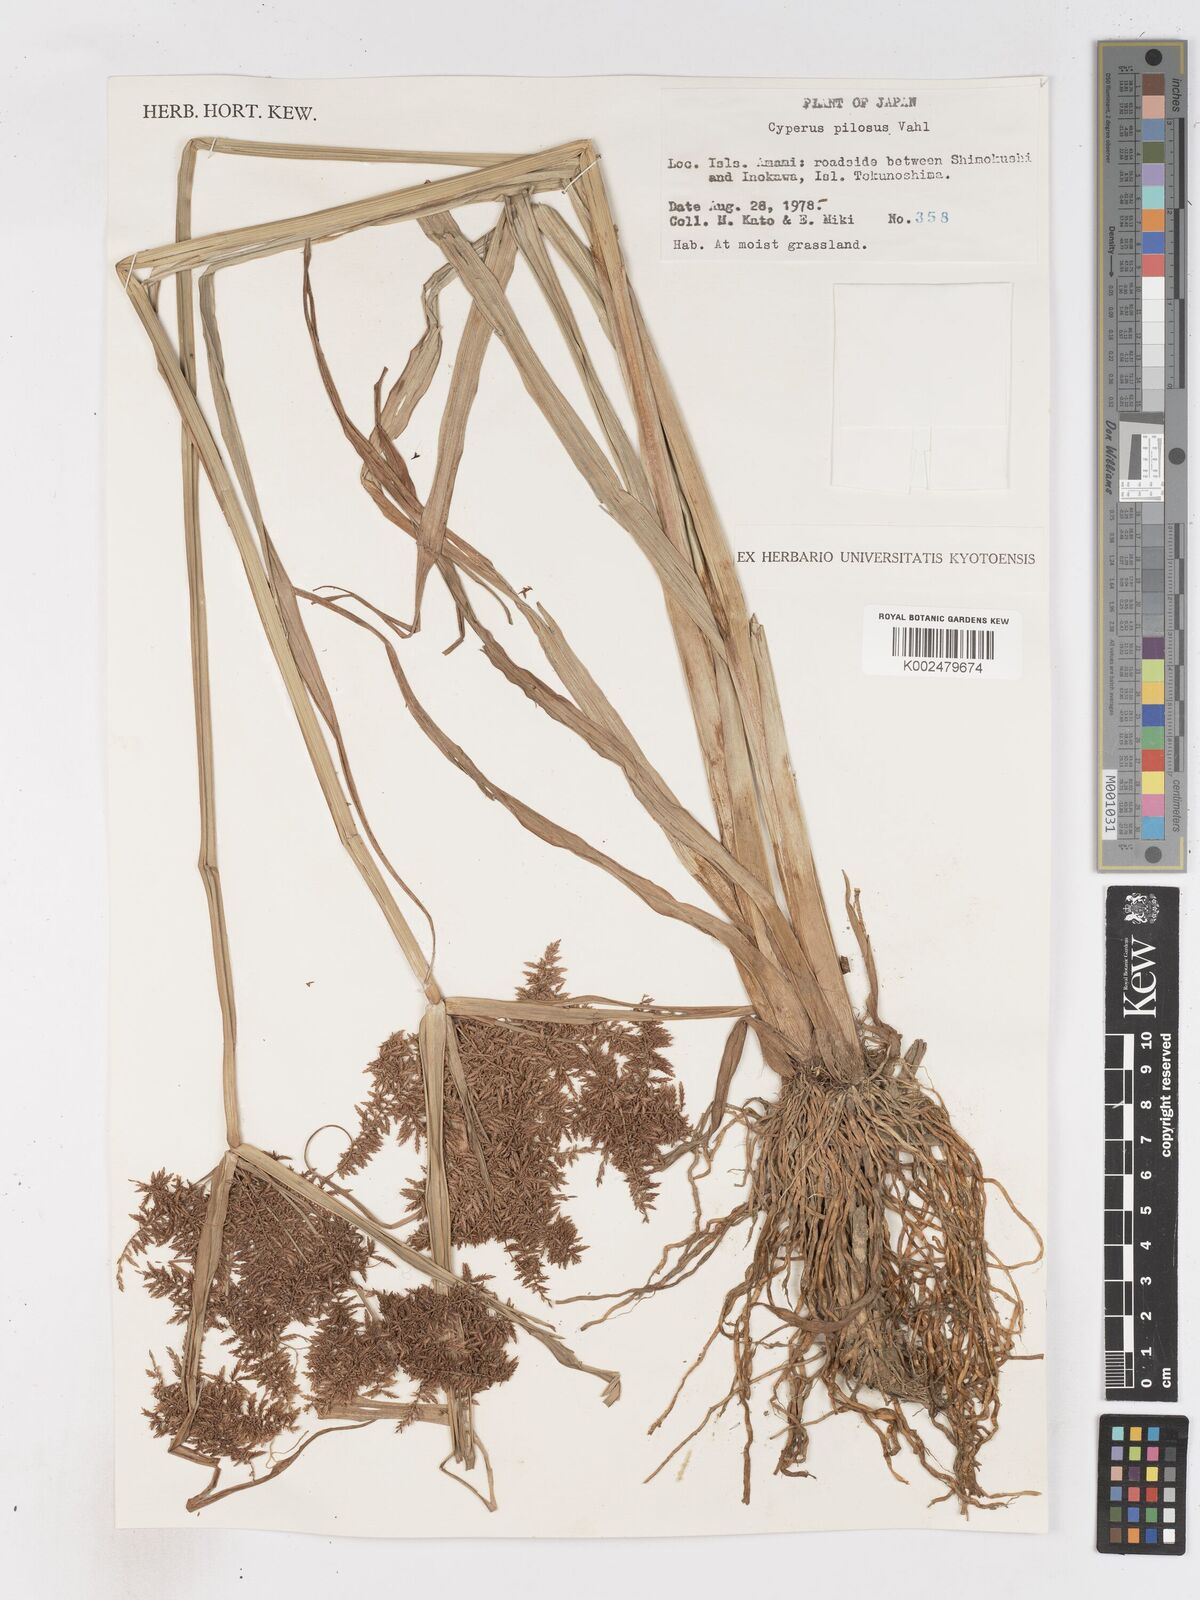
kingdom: Plantae
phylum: Tracheophyta
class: Liliopsida
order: Poales
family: Cyperaceae
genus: Cyperus
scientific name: Cyperus pilosus
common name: Fuzzy flatsedge
